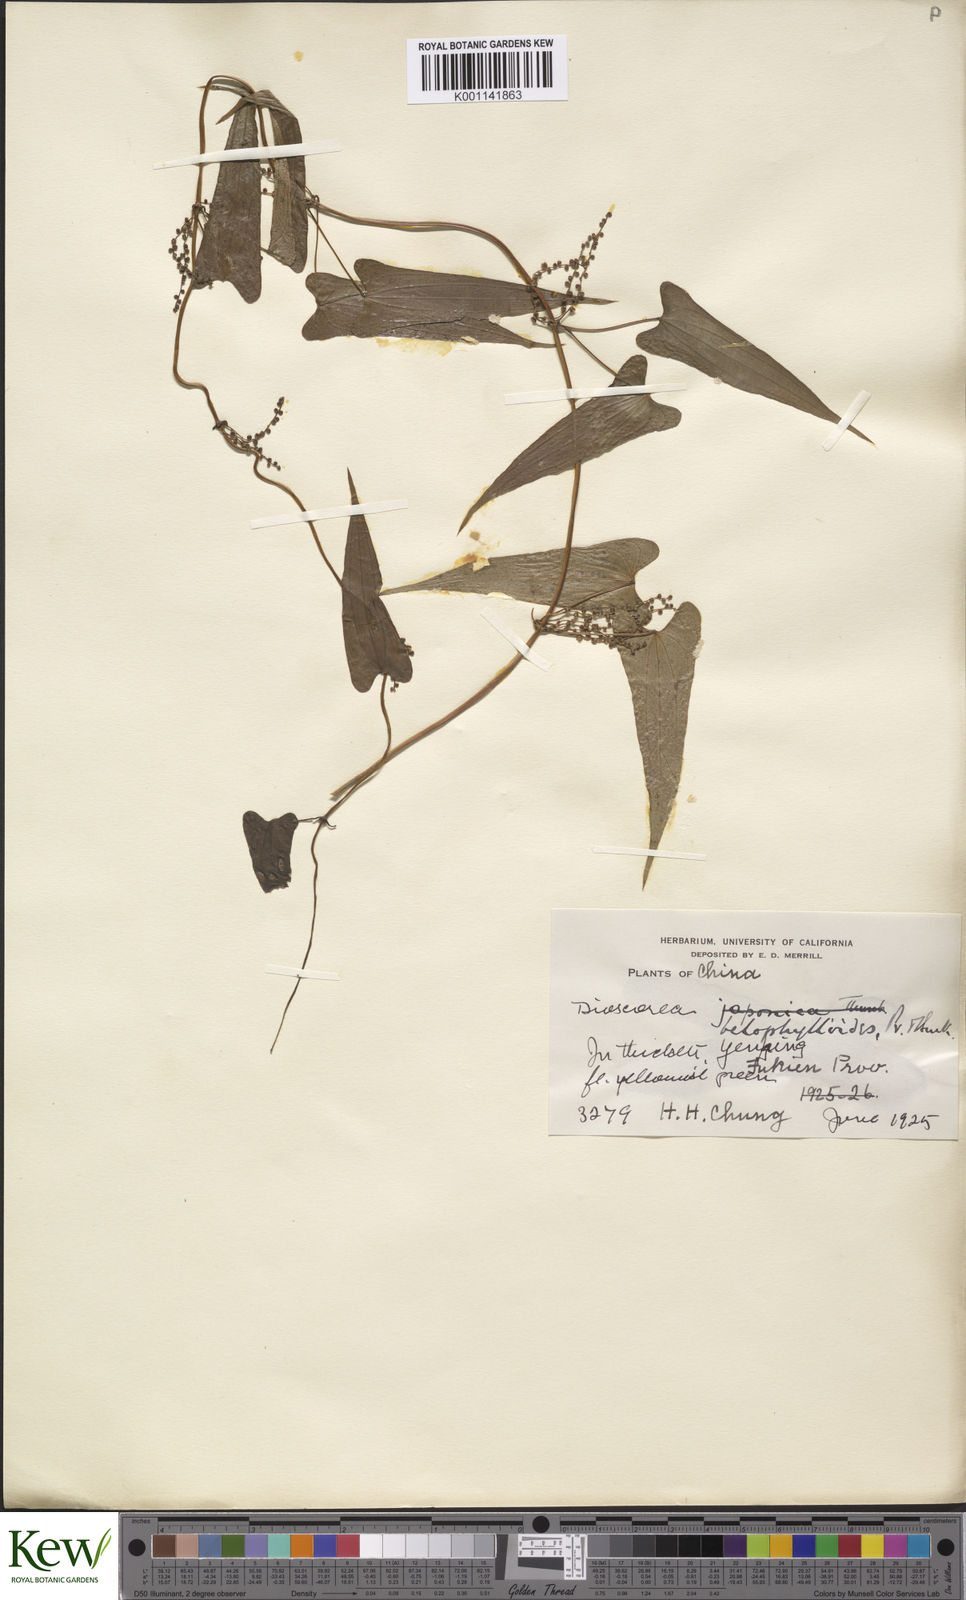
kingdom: Plantae
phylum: Tracheophyta
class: Liliopsida
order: Dioscoreales
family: Dioscoreaceae
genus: Dioscorea
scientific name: Dioscorea japonica
